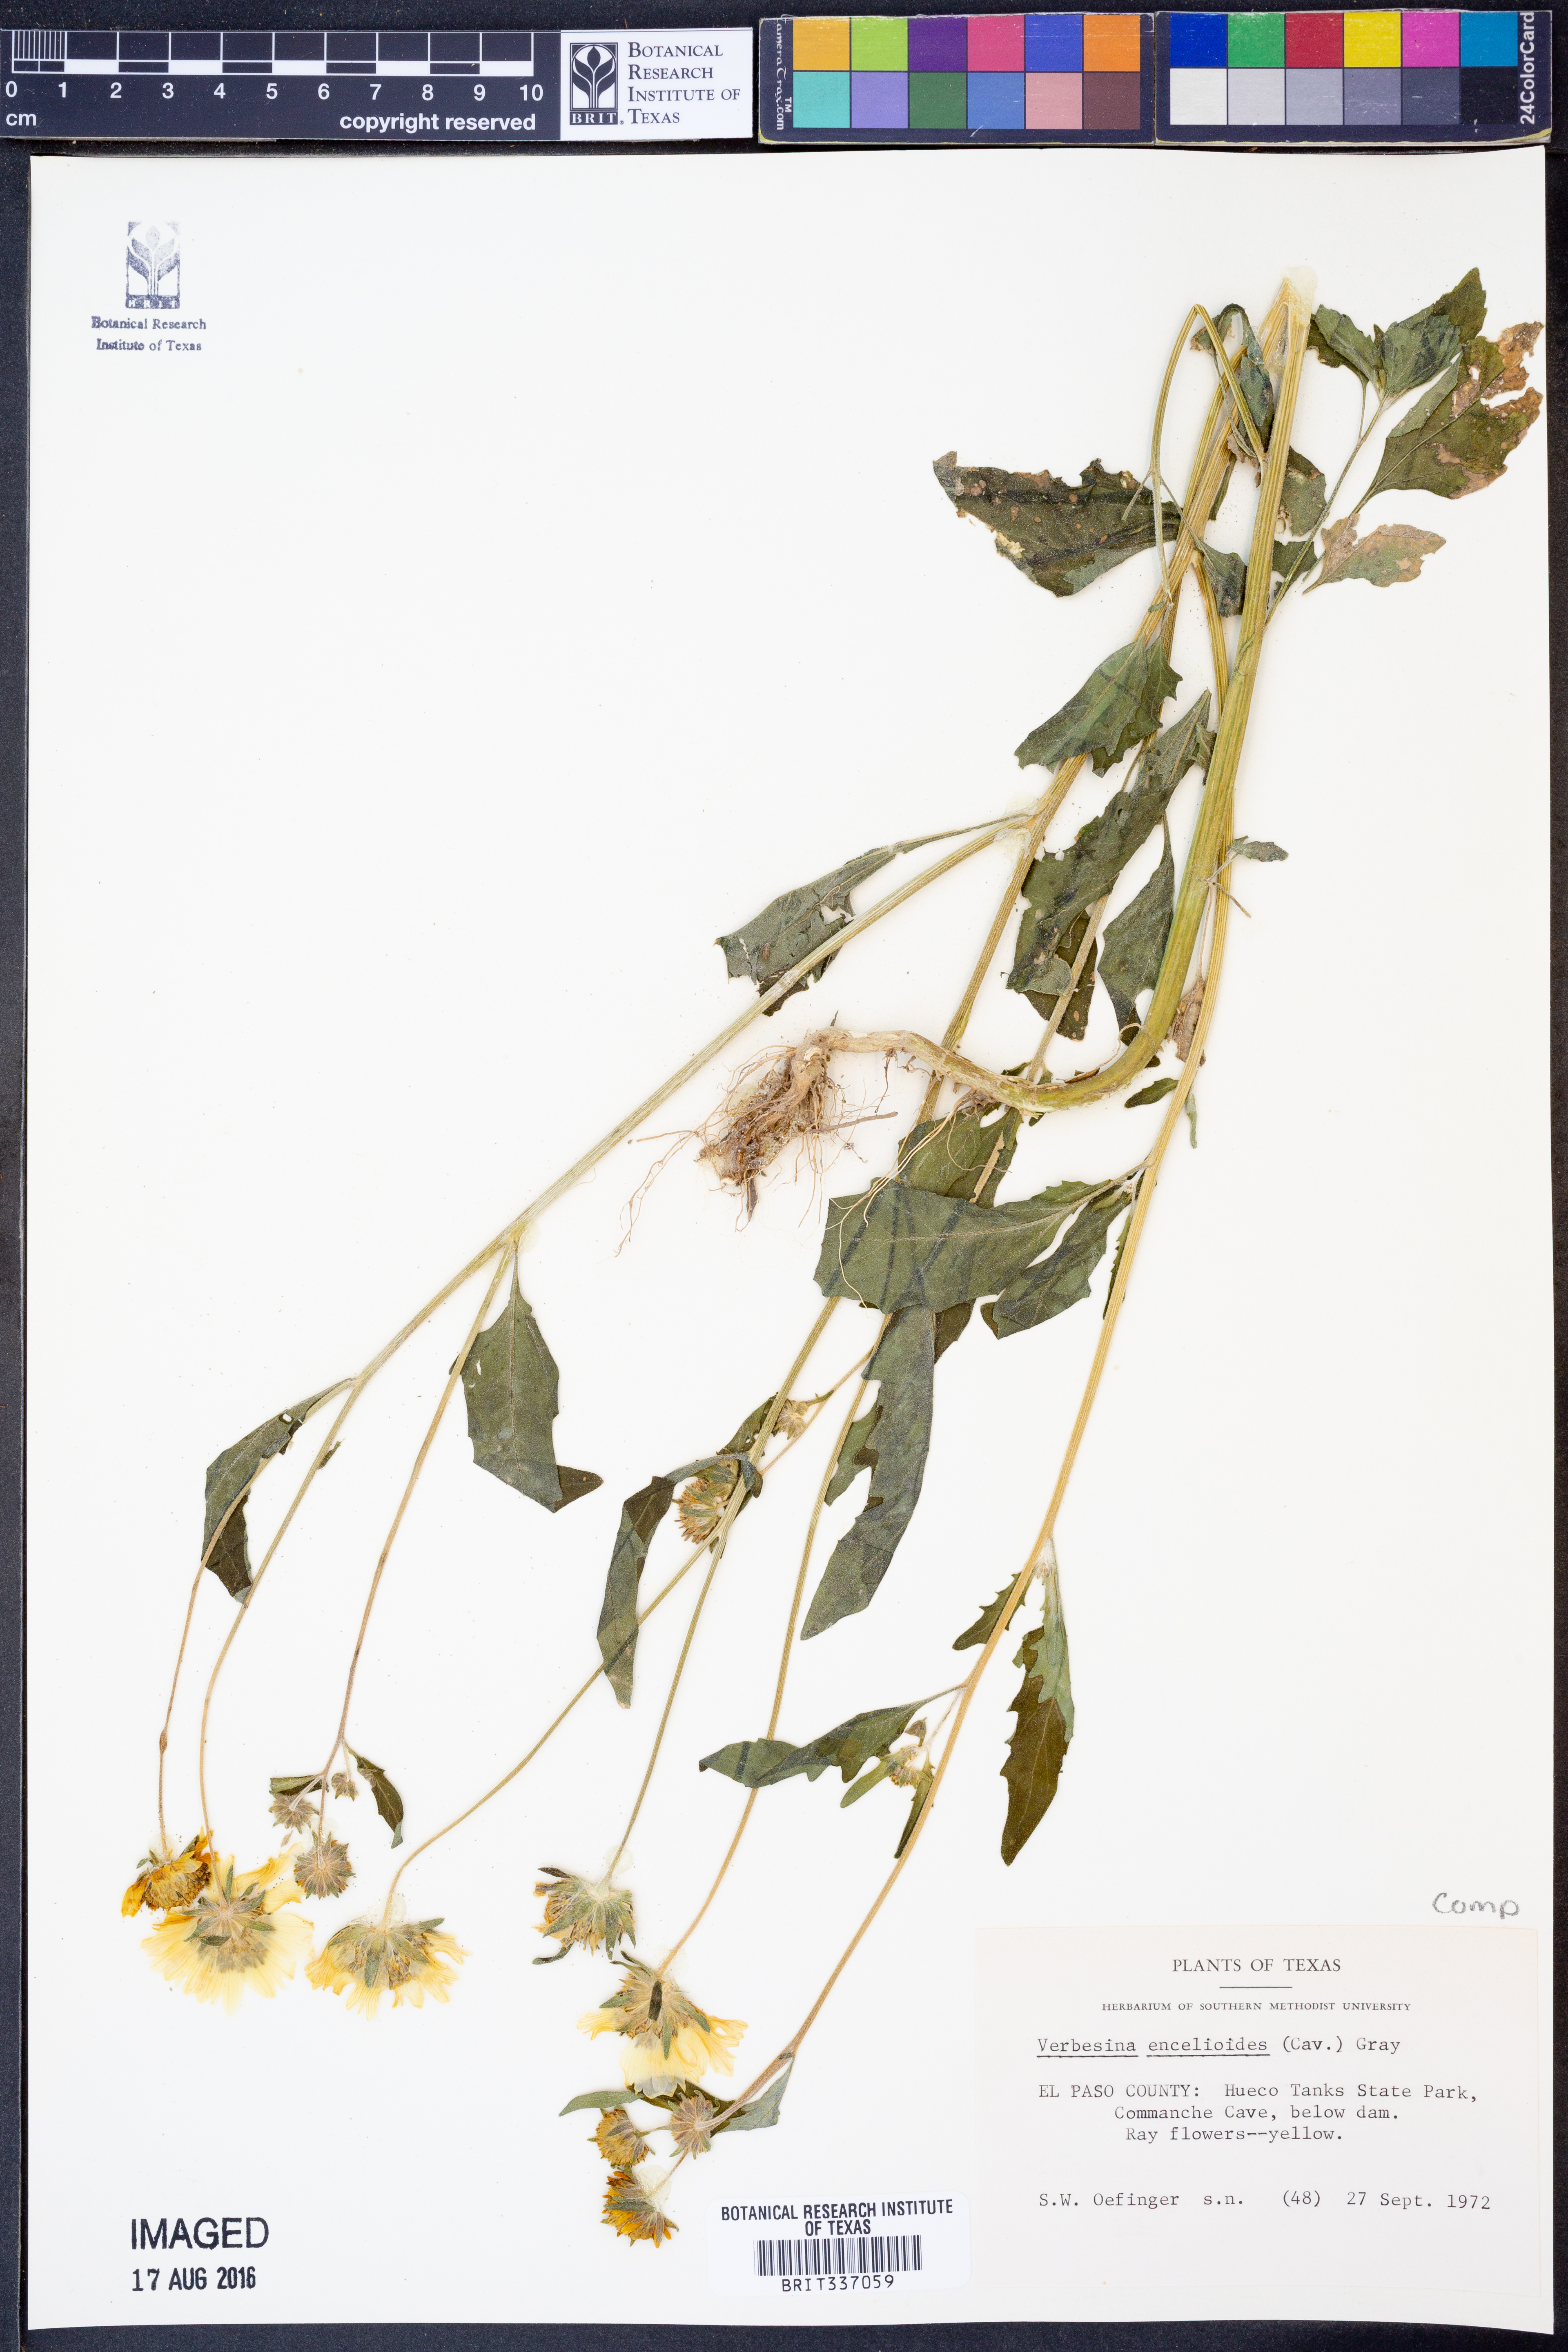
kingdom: Plantae
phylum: Tracheophyta
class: Magnoliopsida
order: Asterales
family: Asteraceae
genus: Verbesina
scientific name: Verbesina encelioides
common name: Golden crownbeard
